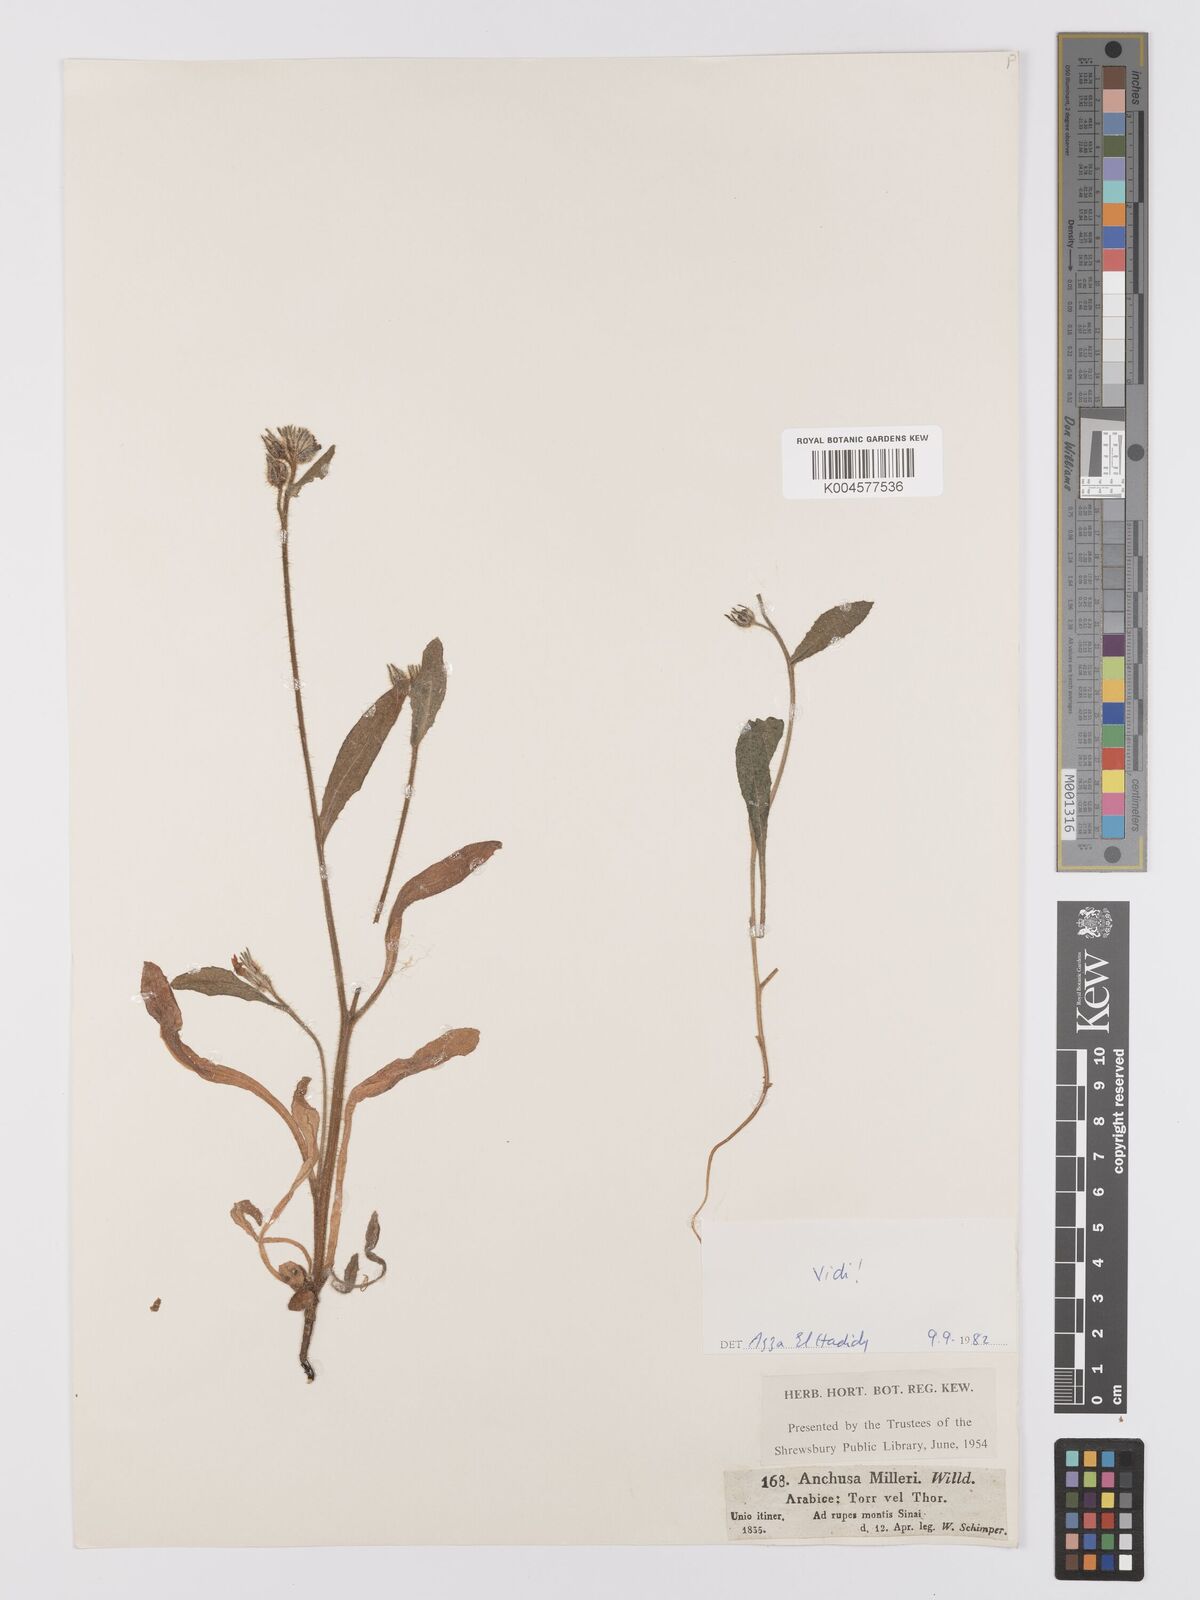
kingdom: Plantae
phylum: Tracheophyta
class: Magnoliopsida
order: Boraginales
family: Boraginaceae
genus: Anchusa
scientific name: Anchusa milleri
